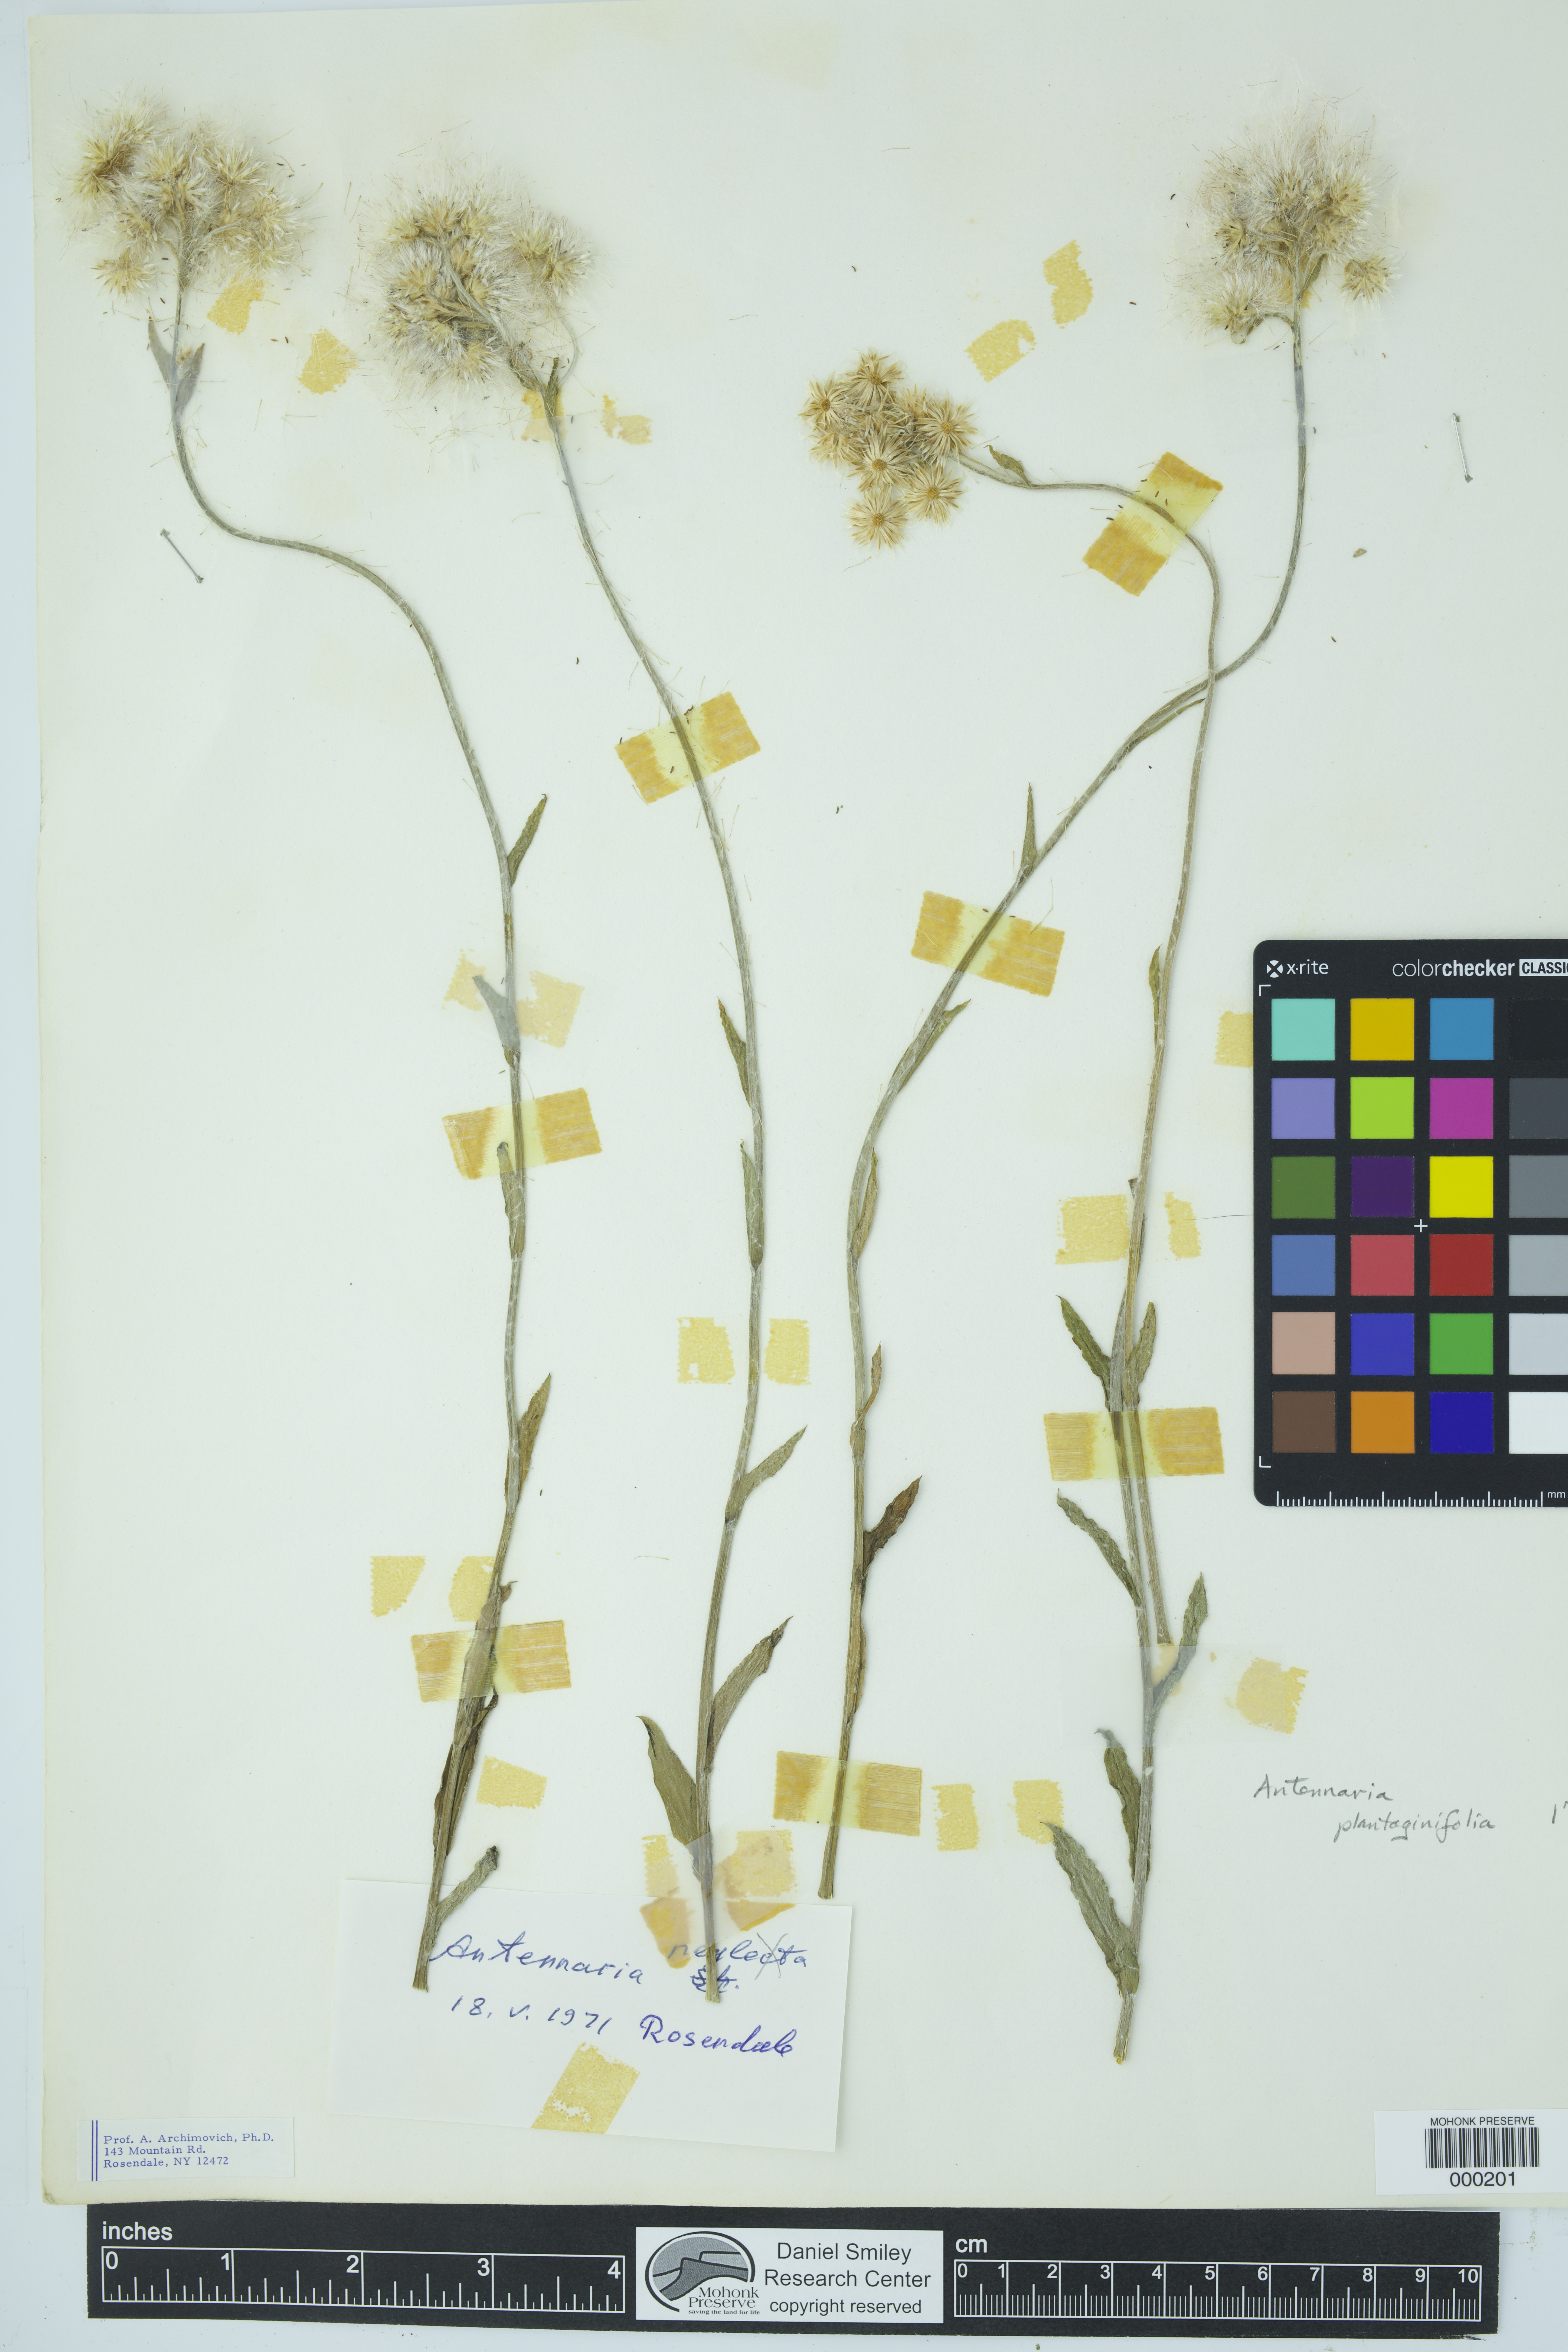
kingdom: Plantae
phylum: Tracheophyta
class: Magnoliopsida
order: Asterales
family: Asteraceae
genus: Antennaria
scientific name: Antennaria plantaginifolia
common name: Plantain-leaved pussytoes
